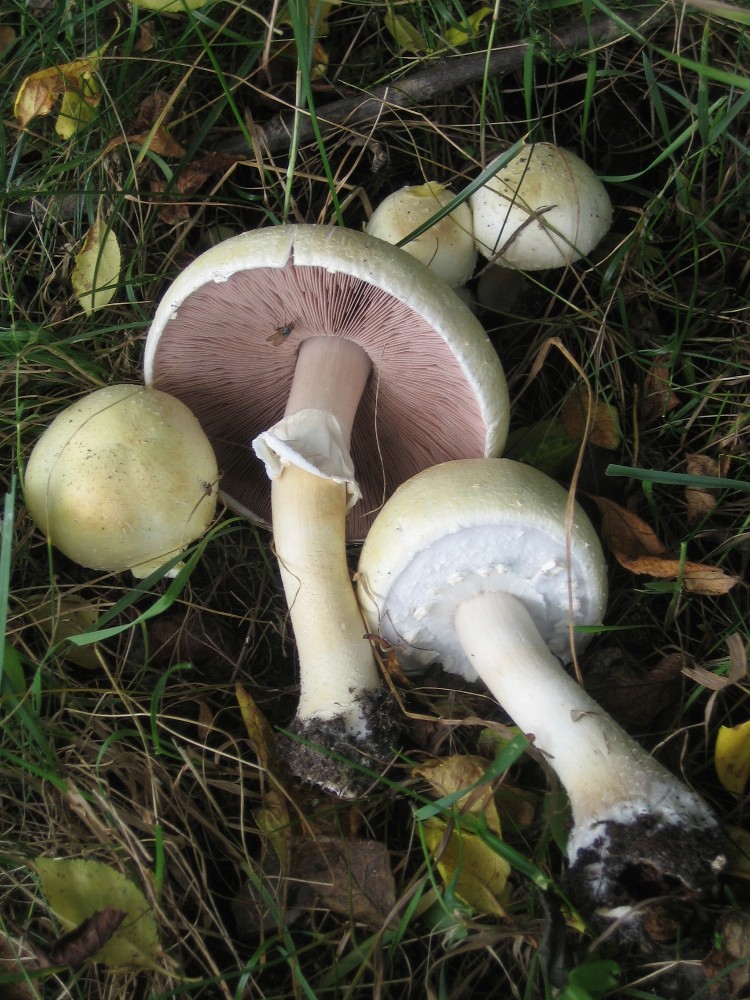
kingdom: Fungi
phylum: Basidiomycota
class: Agaricomycetes
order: Agaricales
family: Agaricaceae
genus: Agaricus
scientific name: Agaricus sylvicola
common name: gulhvid champignon
